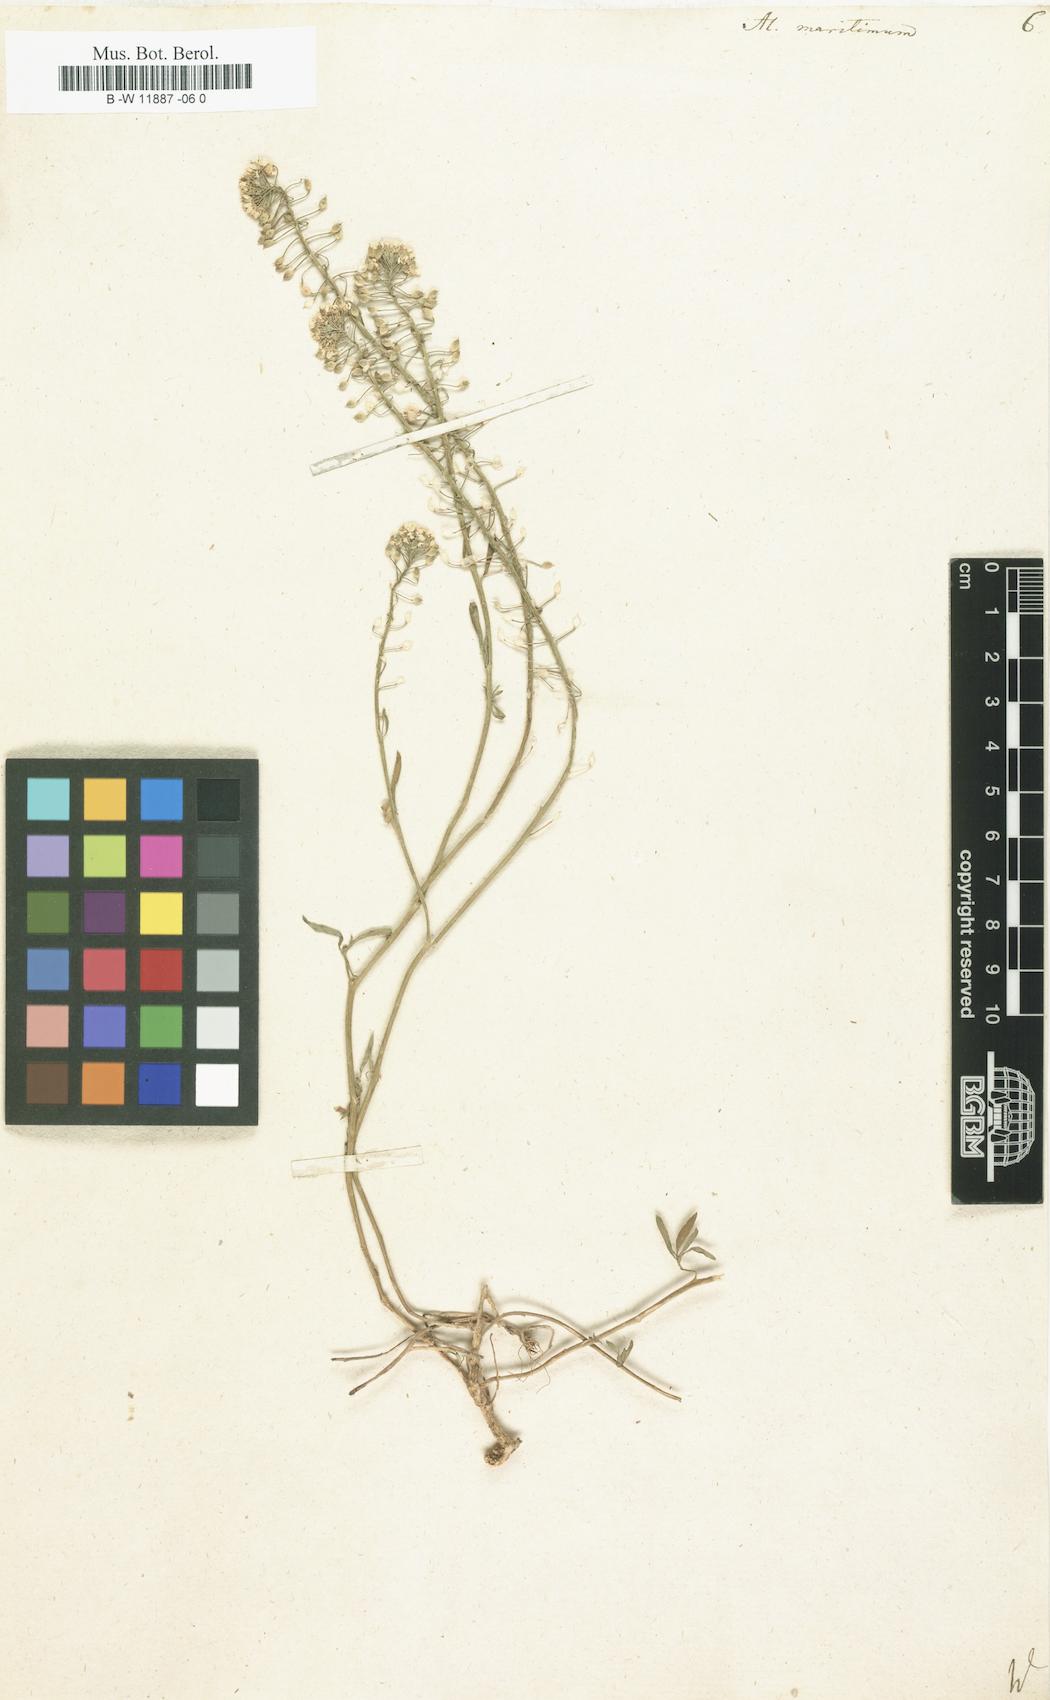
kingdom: Plantae
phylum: Tracheophyta
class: Magnoliopsida
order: Brassicales
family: Brassicaceae
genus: Lobularia
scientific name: Lobularia maritima
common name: Sweet alison
